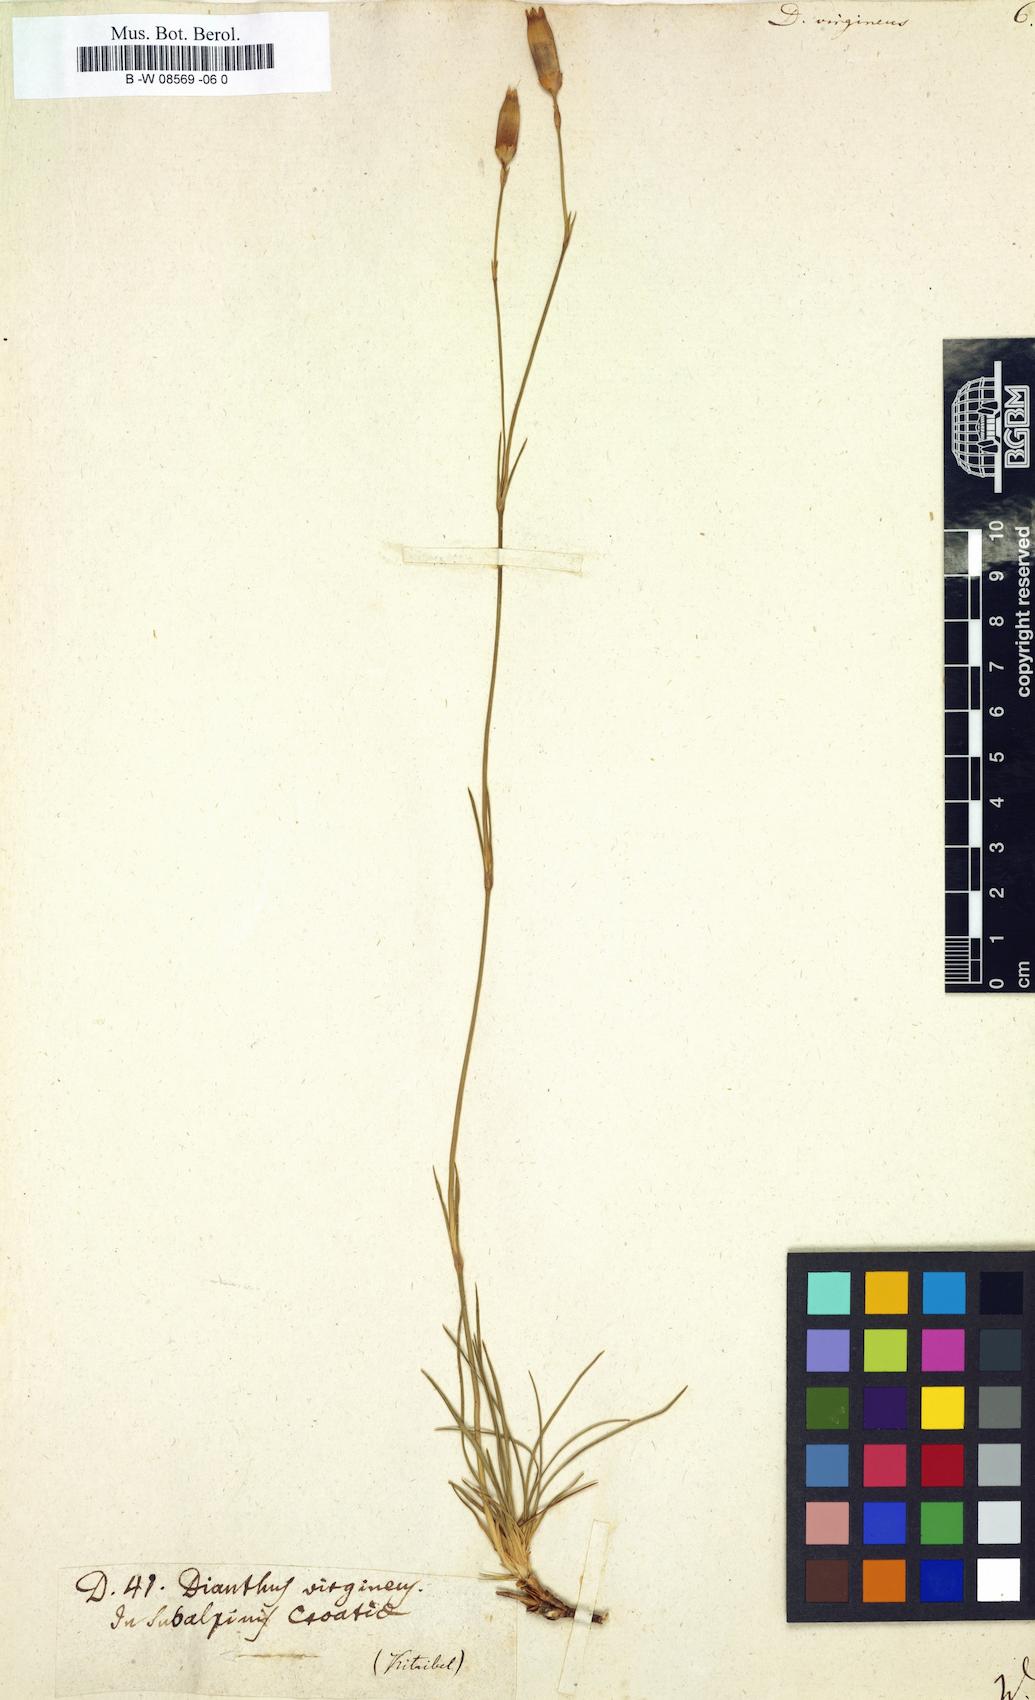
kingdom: Plantae
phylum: Tracheophyta
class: Magnoliopsida
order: Caryophyllales
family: Caryophyllaceae
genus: Dianthus
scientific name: Dianthus virgineus
